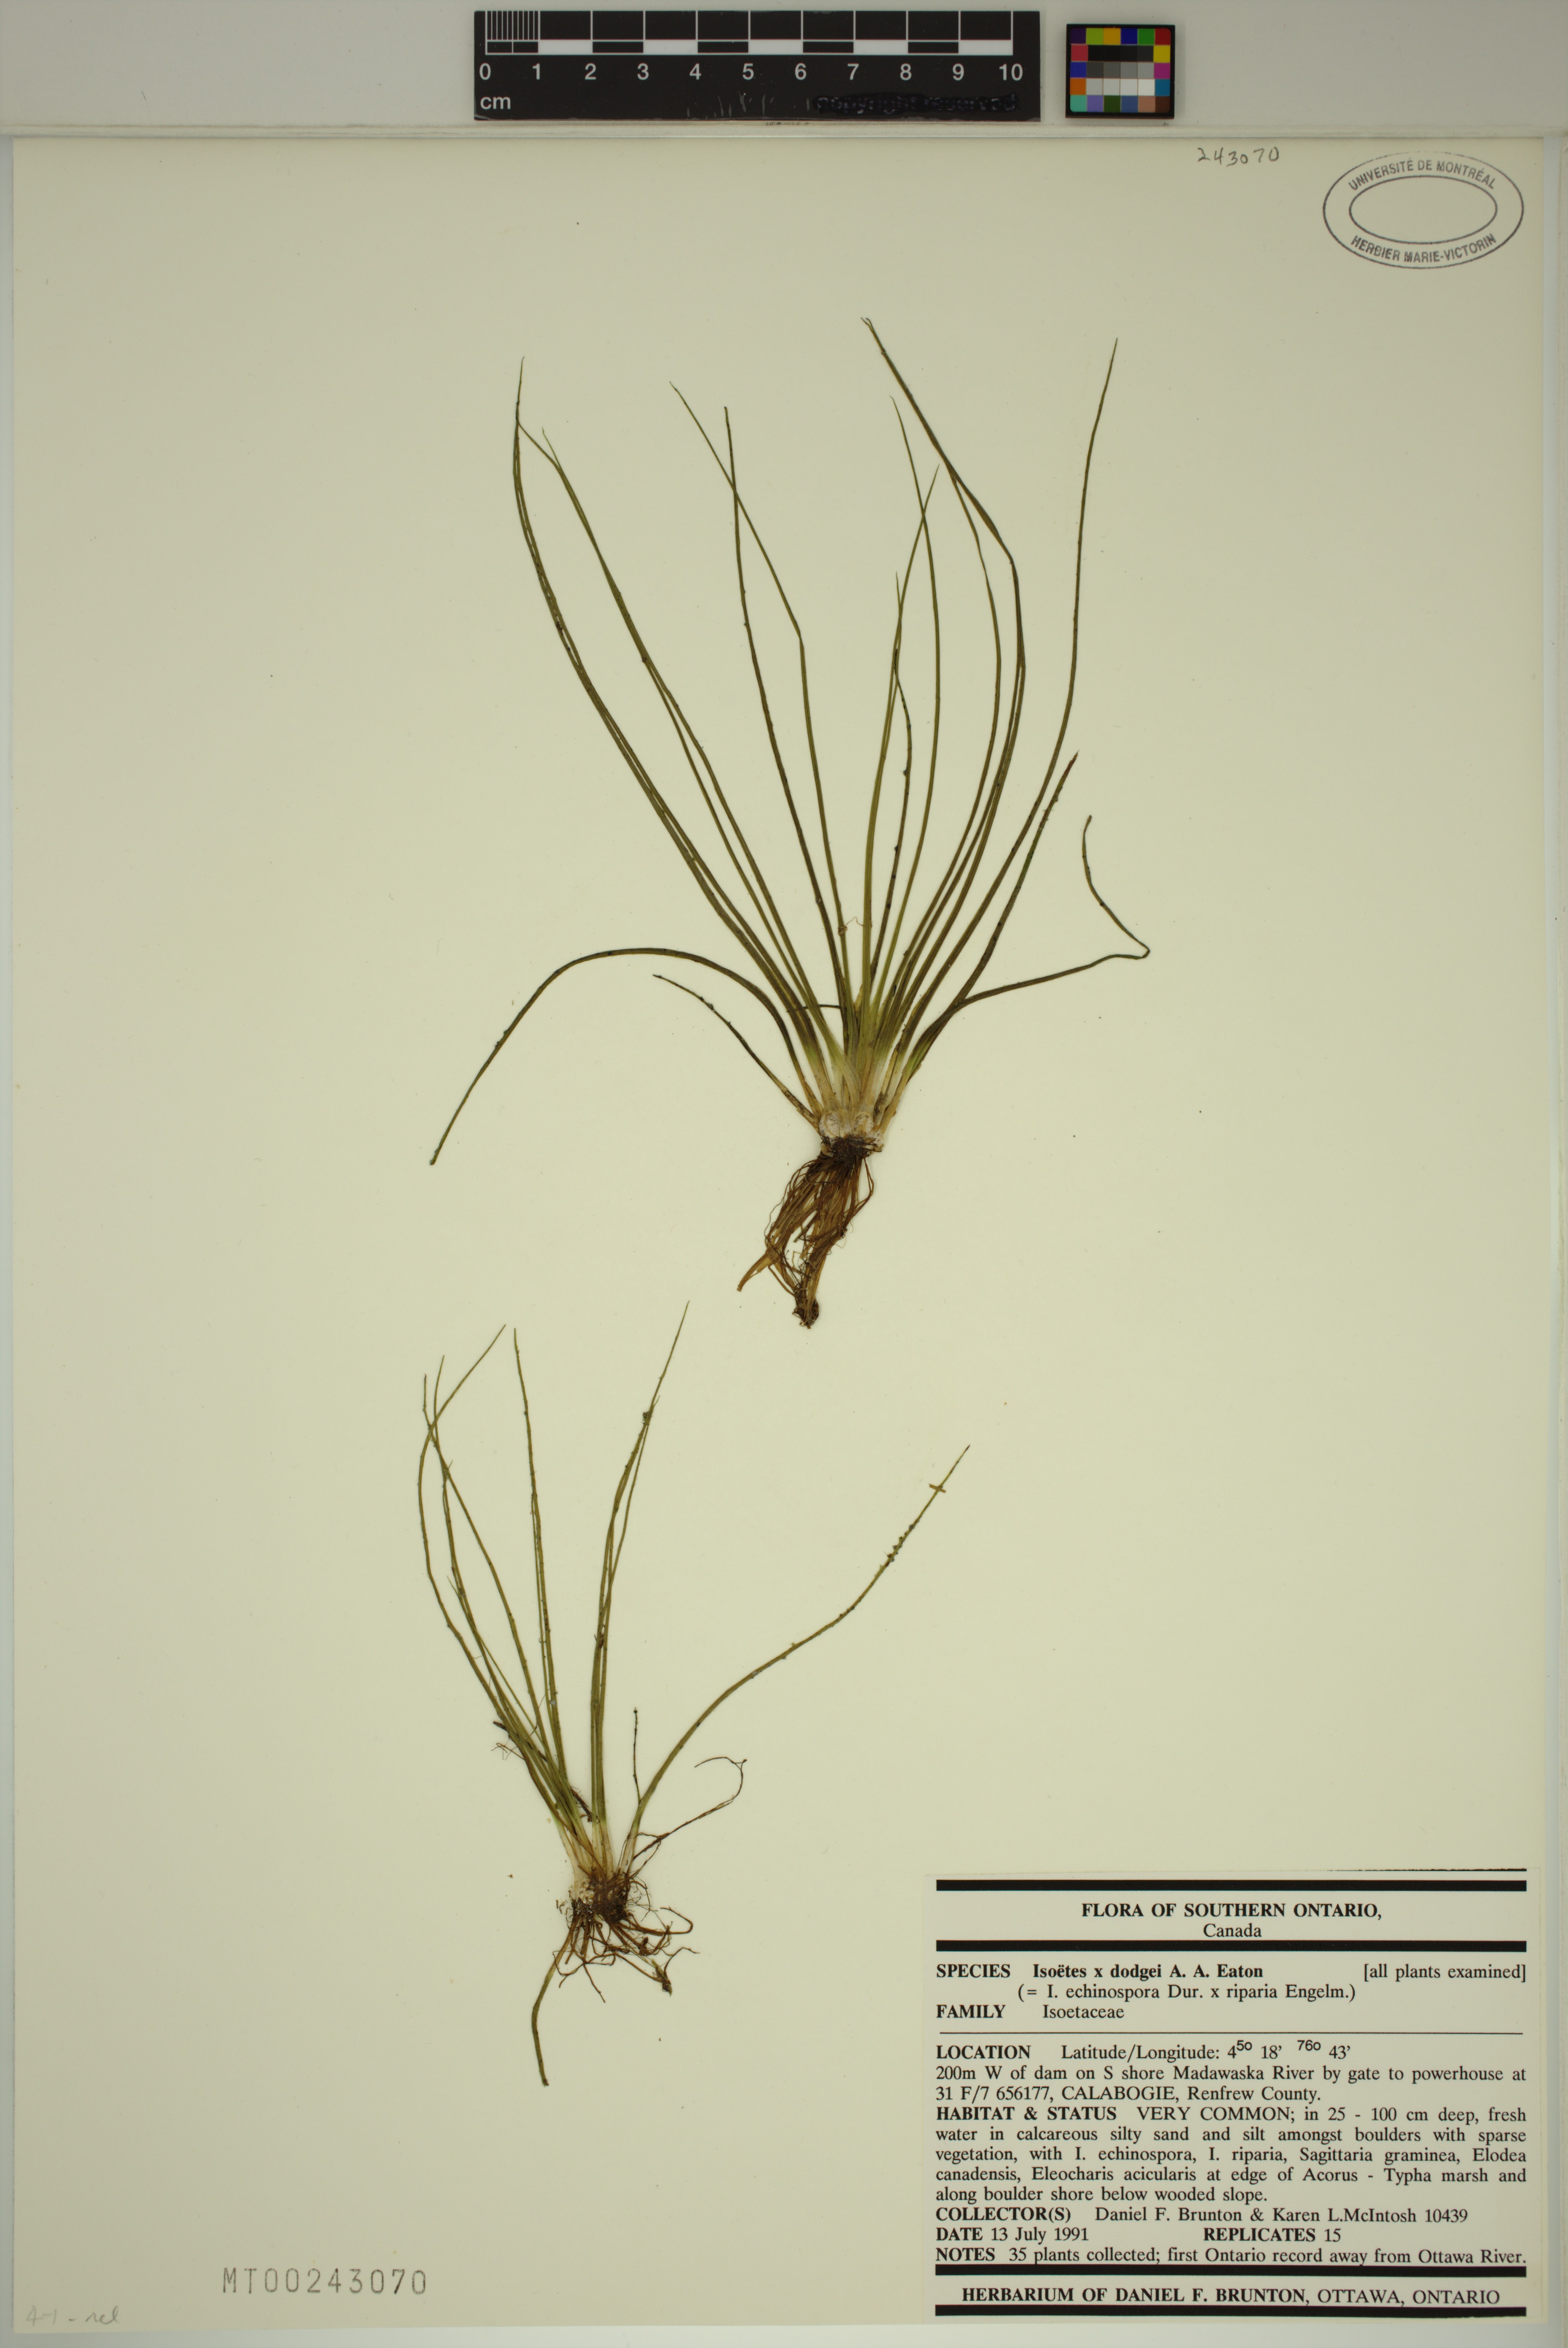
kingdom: Plantae
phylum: Tracheophyta
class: Lycopodiopsida
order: Isoetales
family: Isoetaceae
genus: Isoetes
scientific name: Isoetes robusta
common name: Robust quillwort
